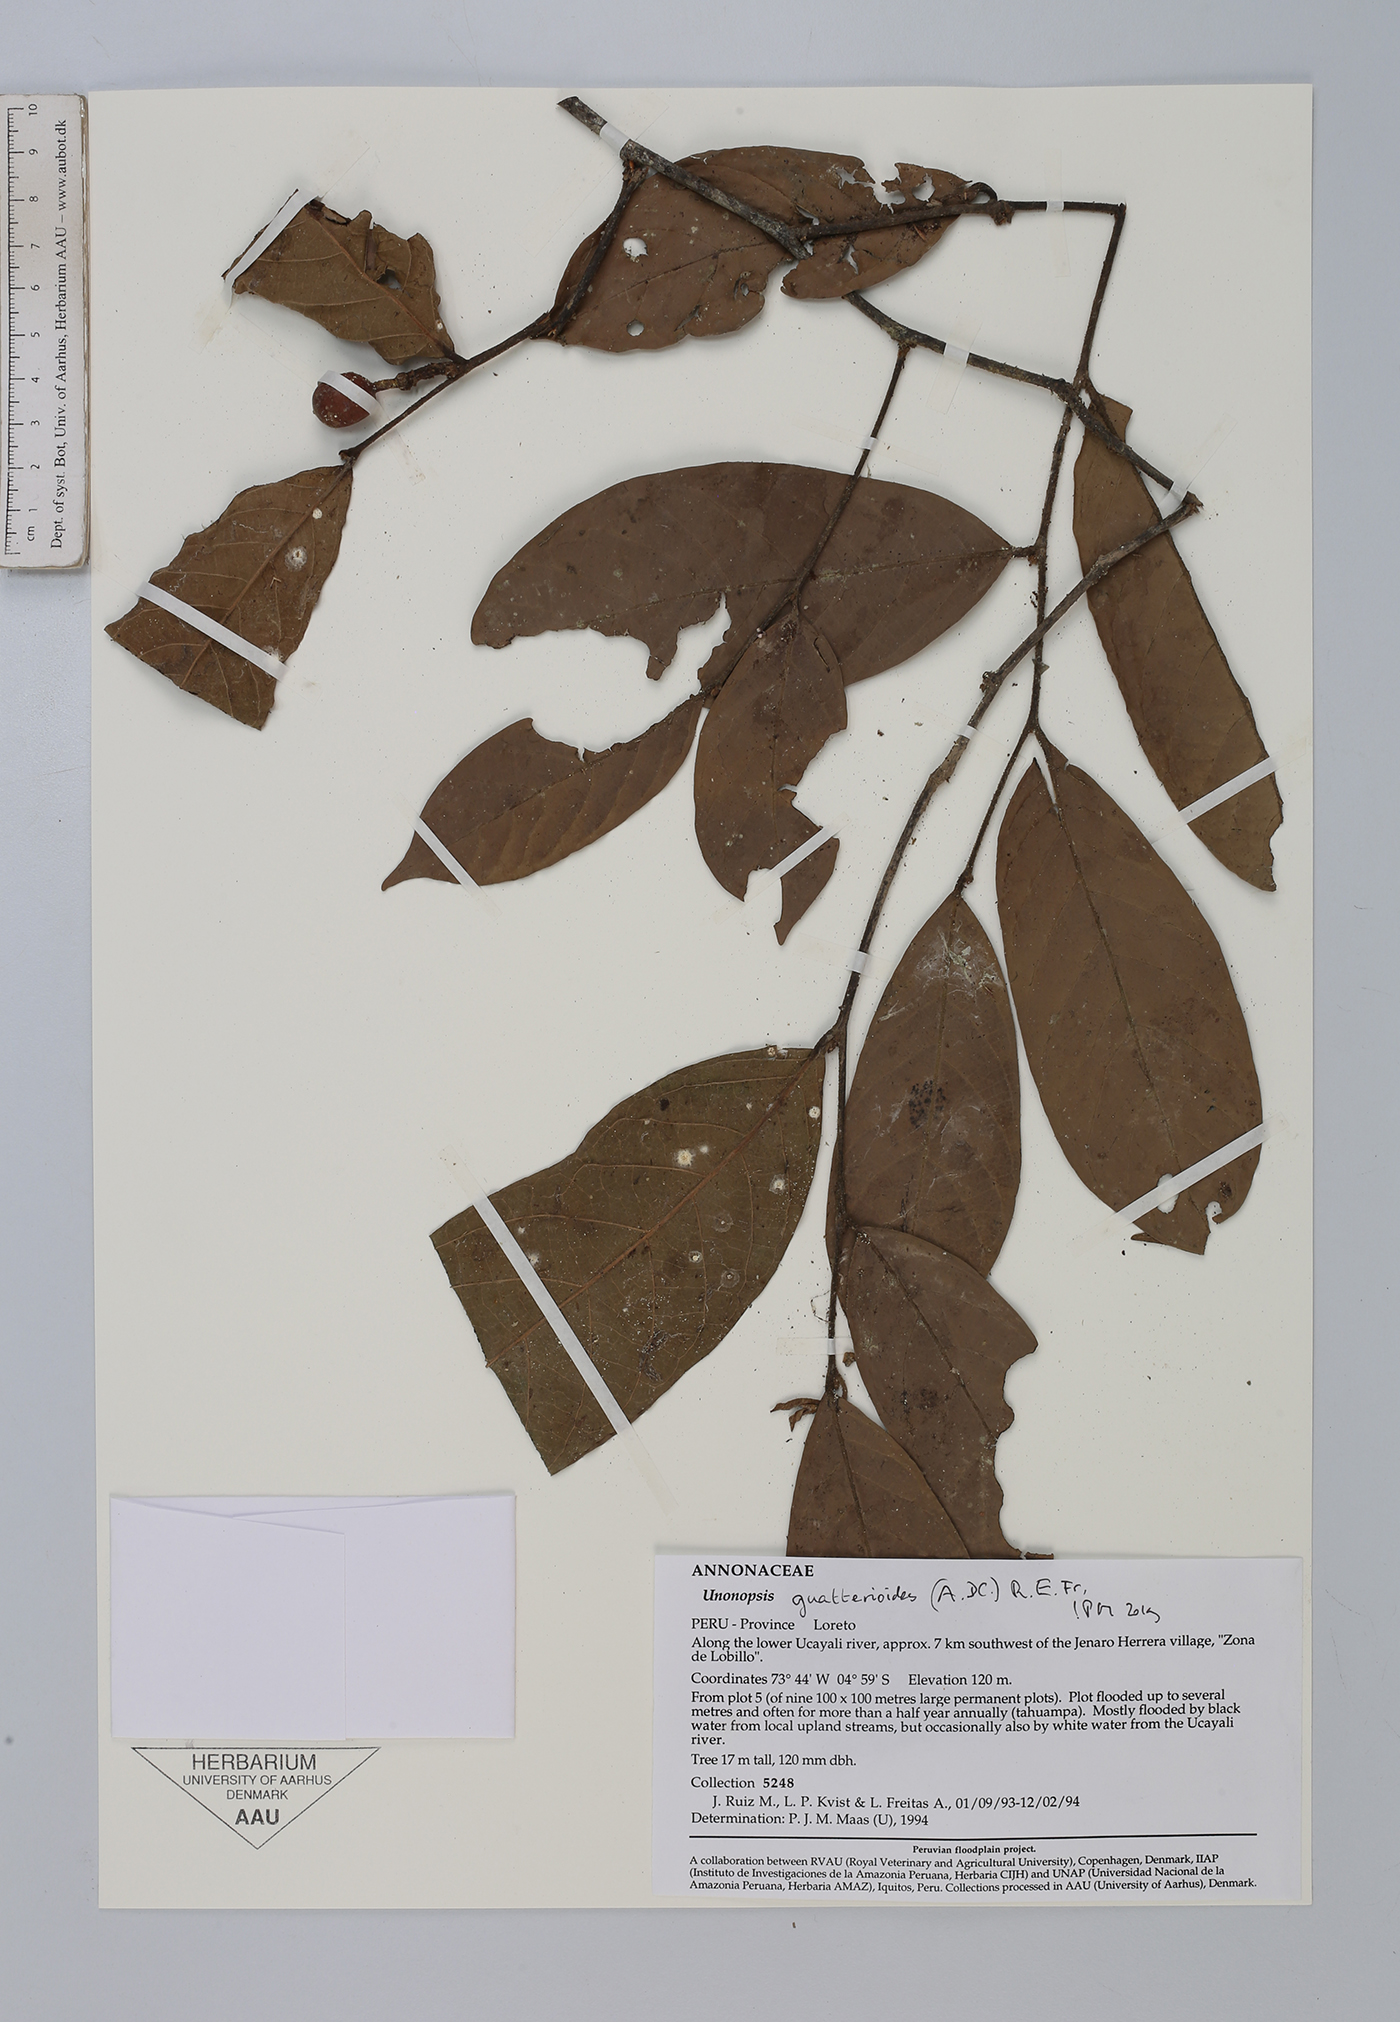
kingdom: Plantae
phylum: Tracheophyta
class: Magnoliopsida
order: Magnoliales
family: Annonaceae
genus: Unonopsis
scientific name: Unonopsis guatterioides
